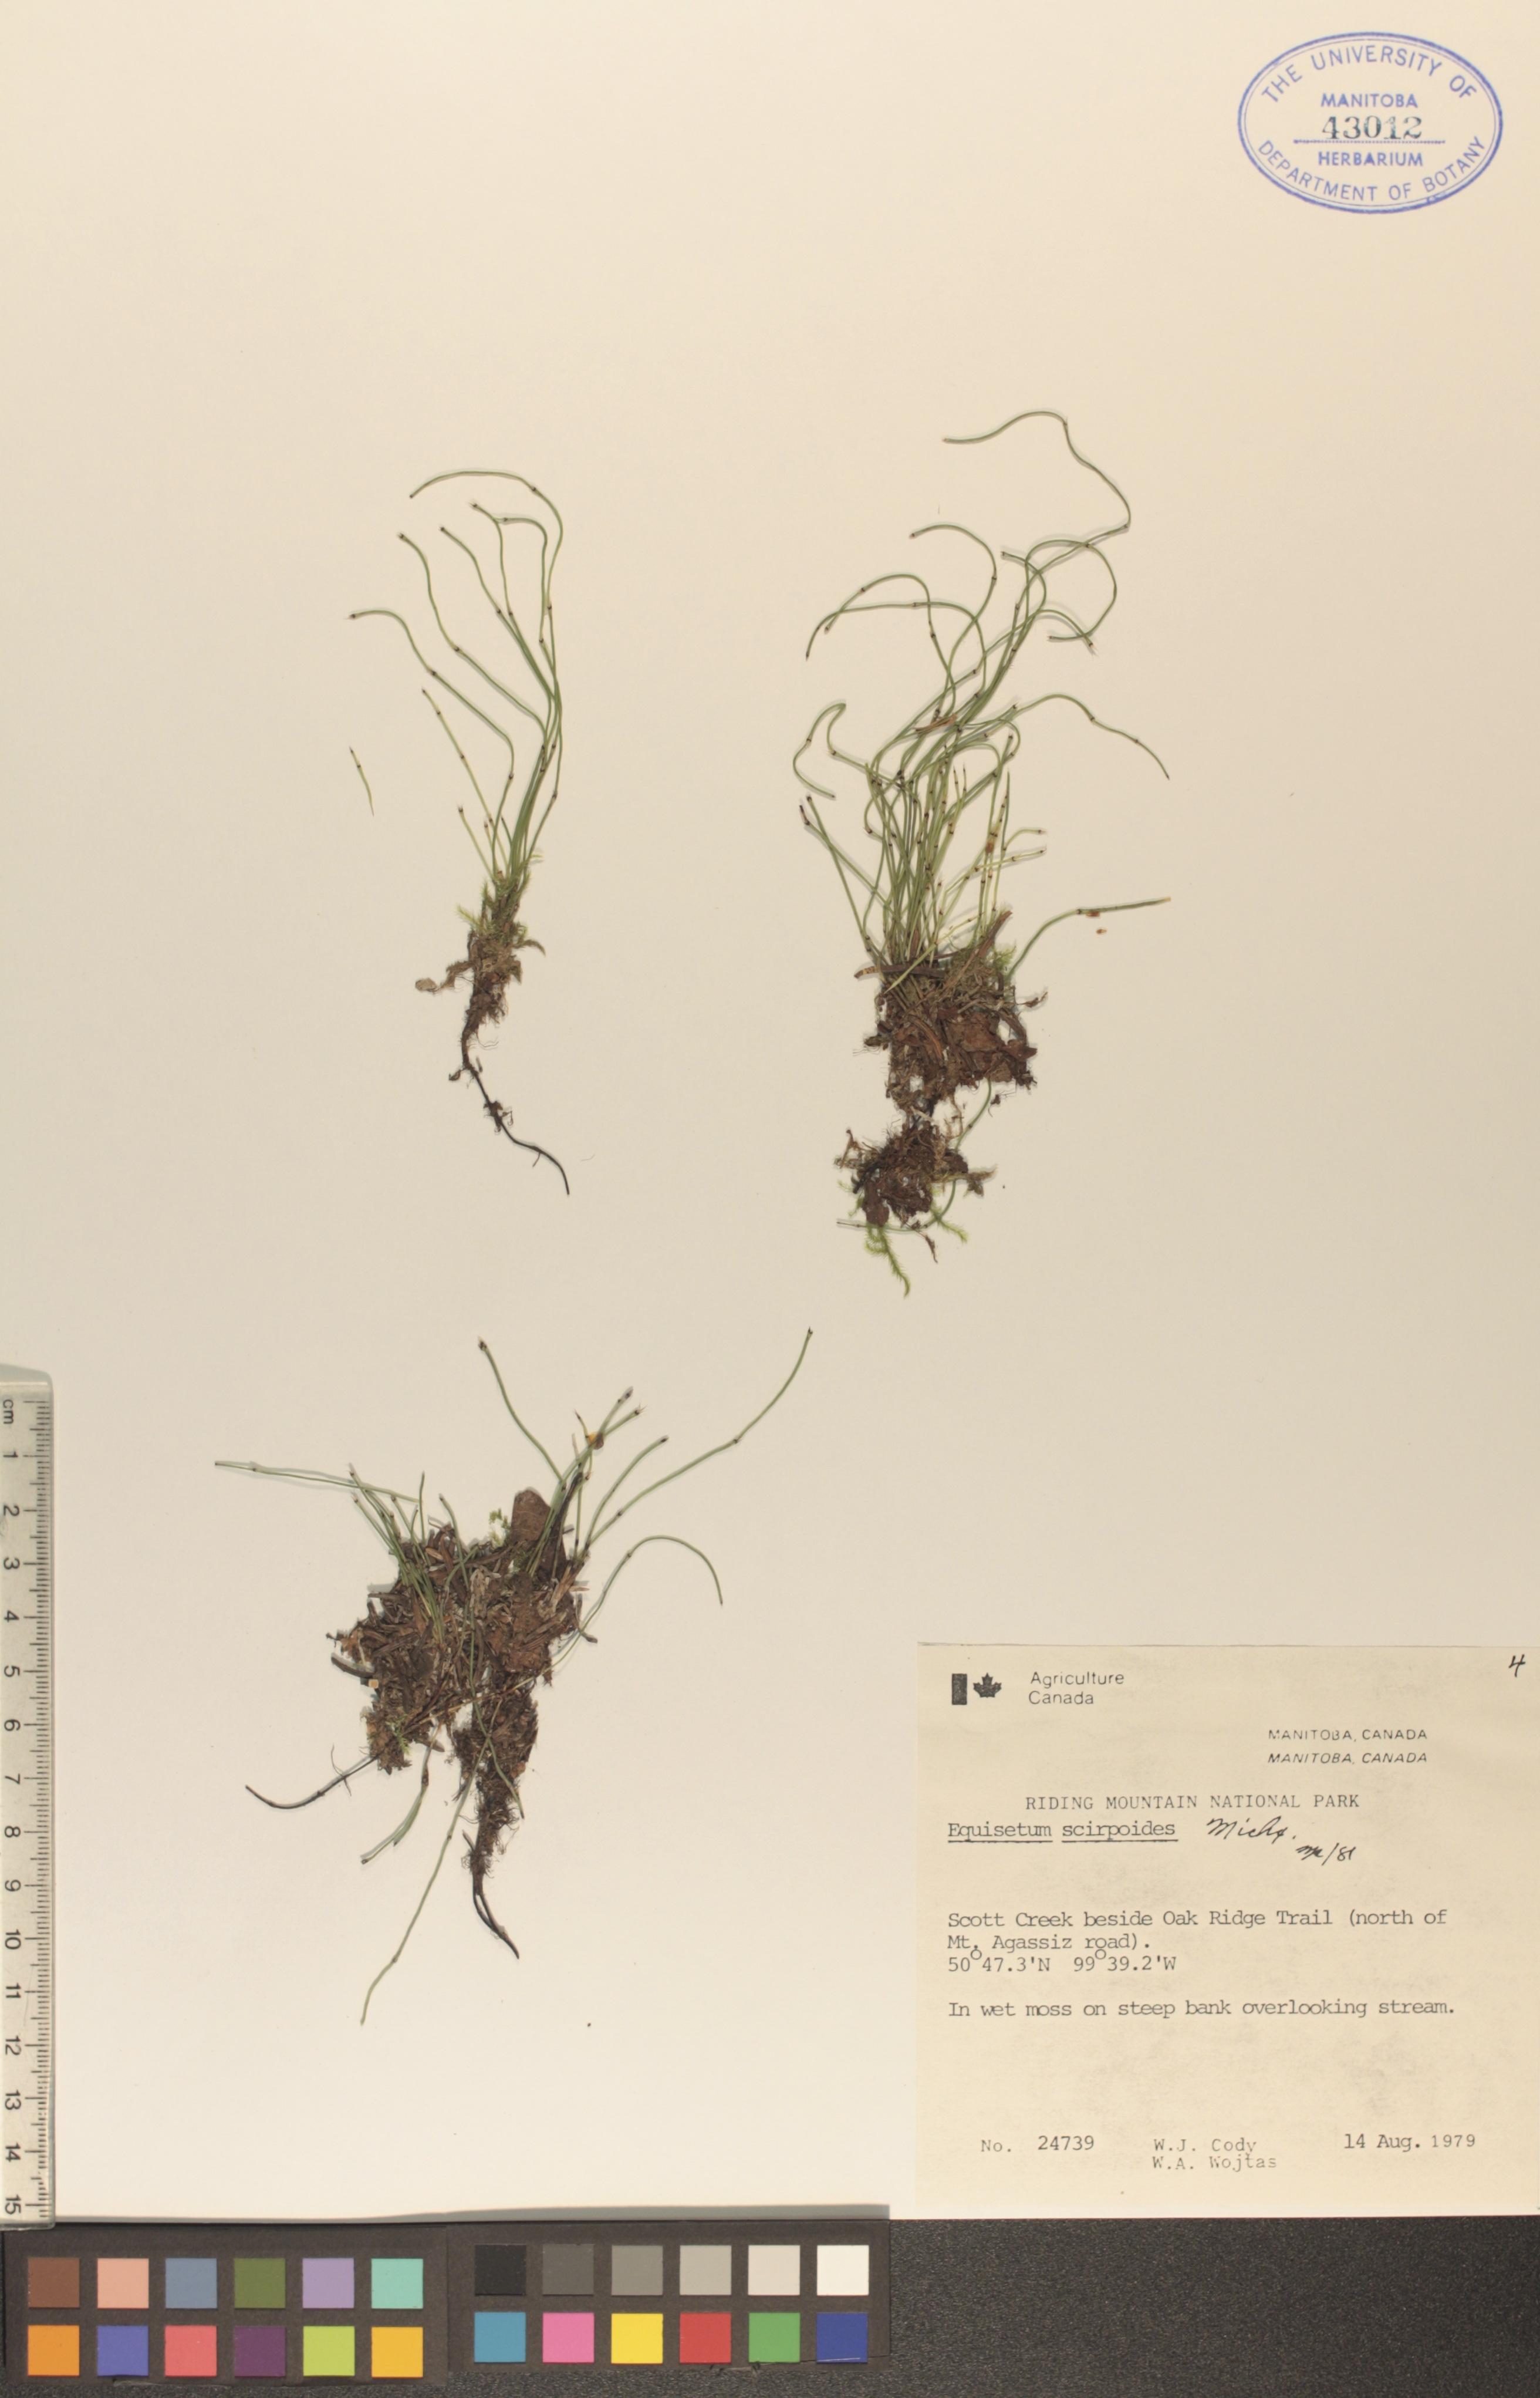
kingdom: Plantae
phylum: Tracheophyta
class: Polypodiopsida
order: Equisetales
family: Equisetaceae
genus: Equisetum
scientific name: Equisetum scirpoides
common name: Delicate horsetail
